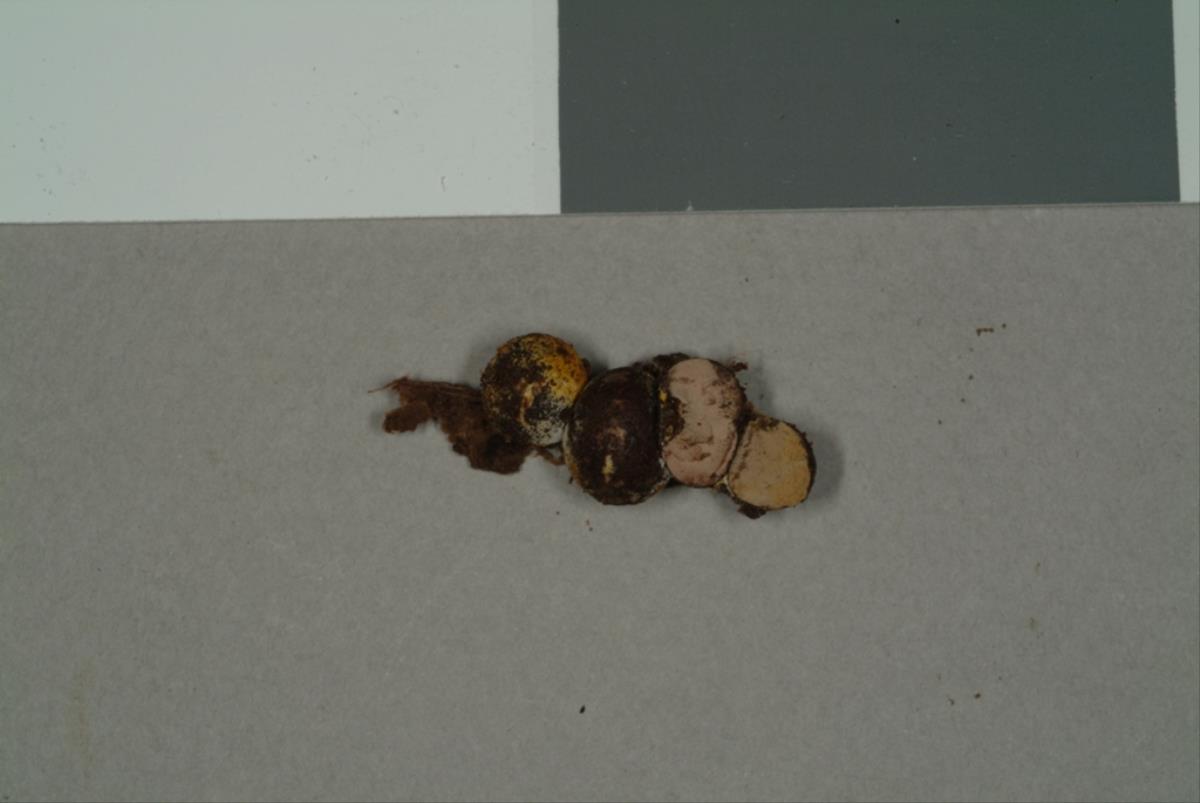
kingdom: Protozoa
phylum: Mycetozoa
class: Myxomycetes
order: Cribrariales
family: Tubiferaceae
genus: Lycogala
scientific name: Lycogala epidendrum
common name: Wolf's milk
